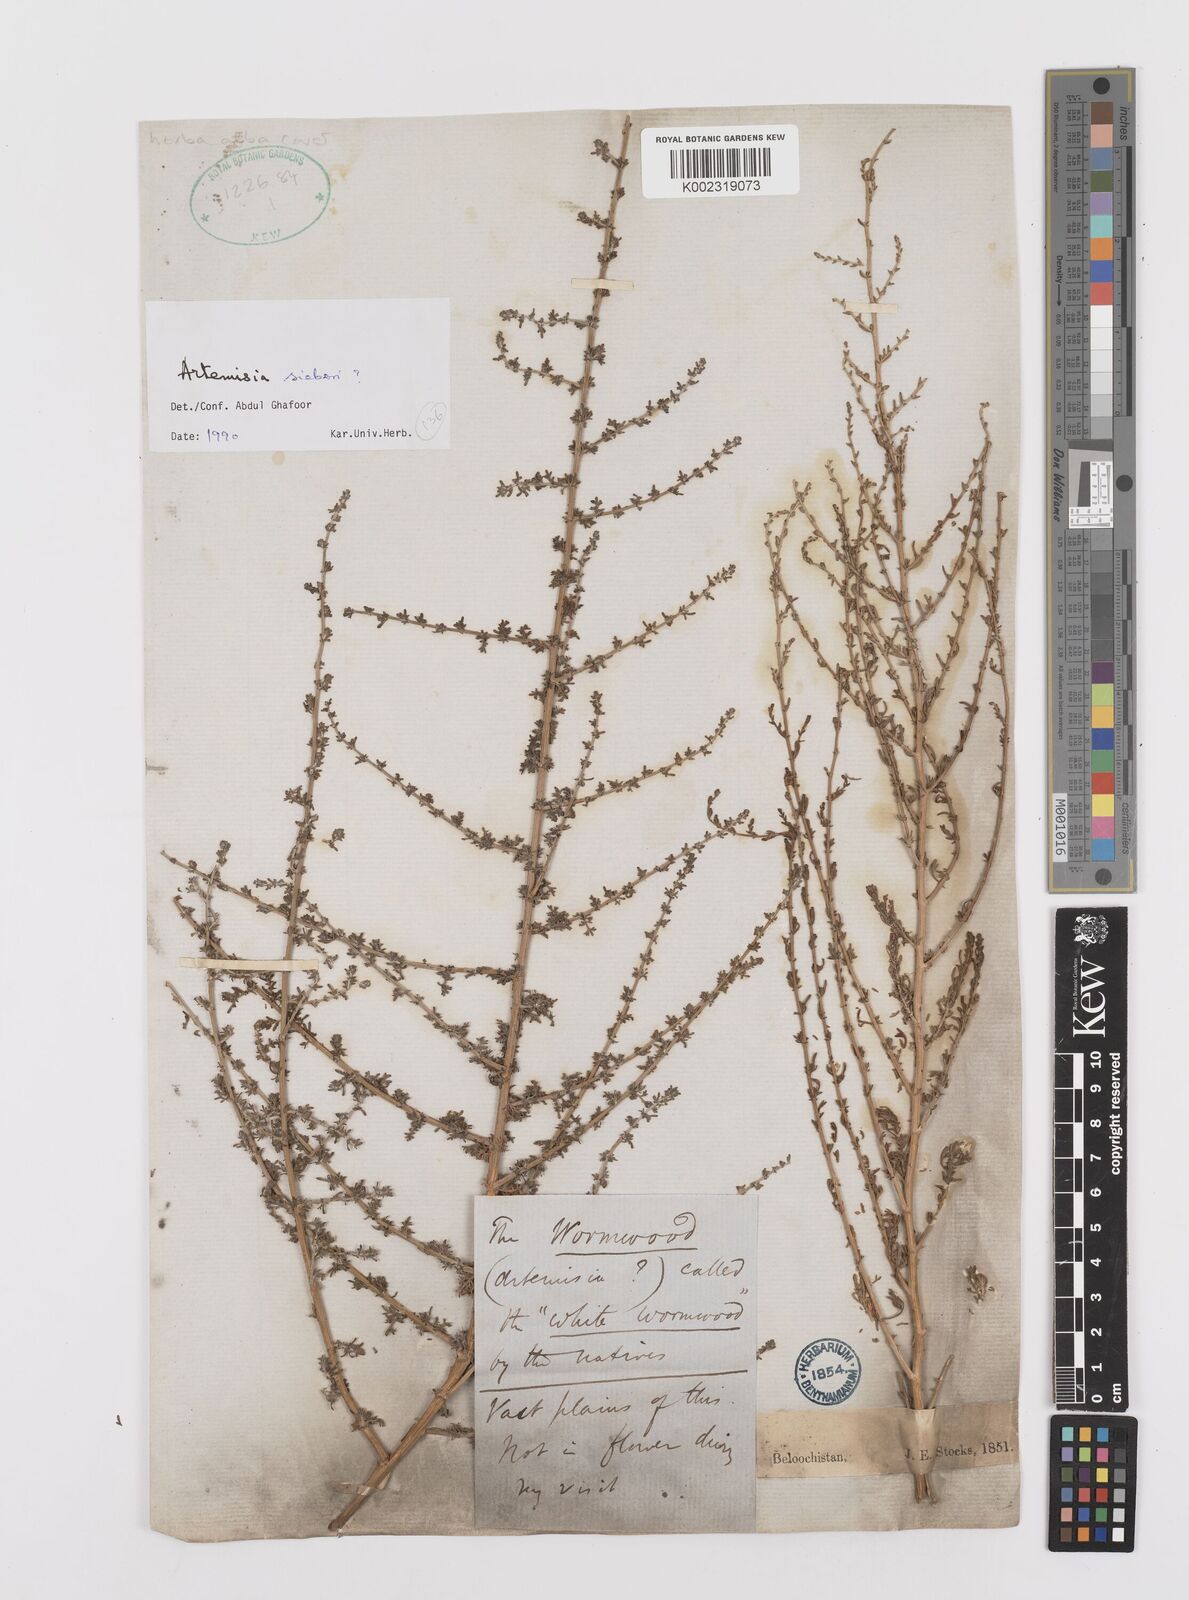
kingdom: Plantae
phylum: Tracheophyta
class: Magnoliopsida
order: Asterales
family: Asteraceae
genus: Artemisia
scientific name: Artemisia sieberi
